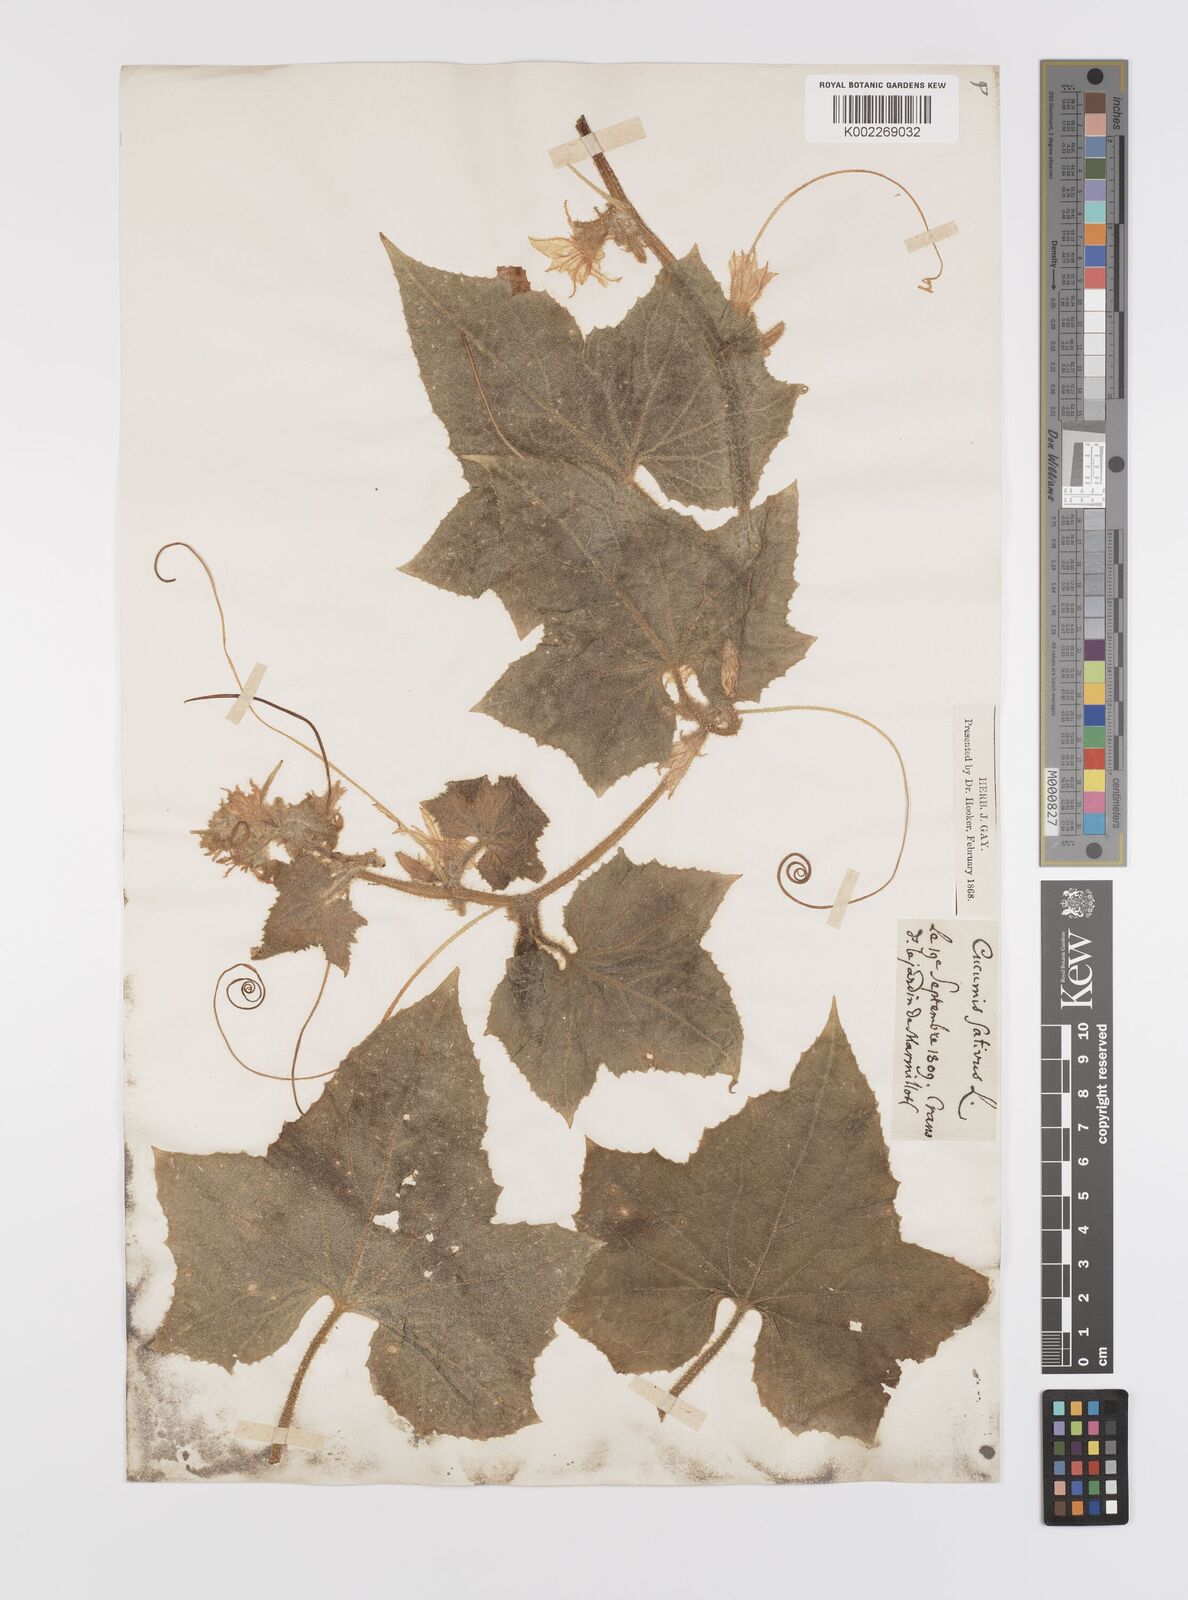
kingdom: Plantae
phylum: Tracheophyta
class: Magnoliopsida
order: Cucurbitales
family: Cucurbitaceae
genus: Cucumis
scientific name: Cucumis sativus
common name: Cucumber
